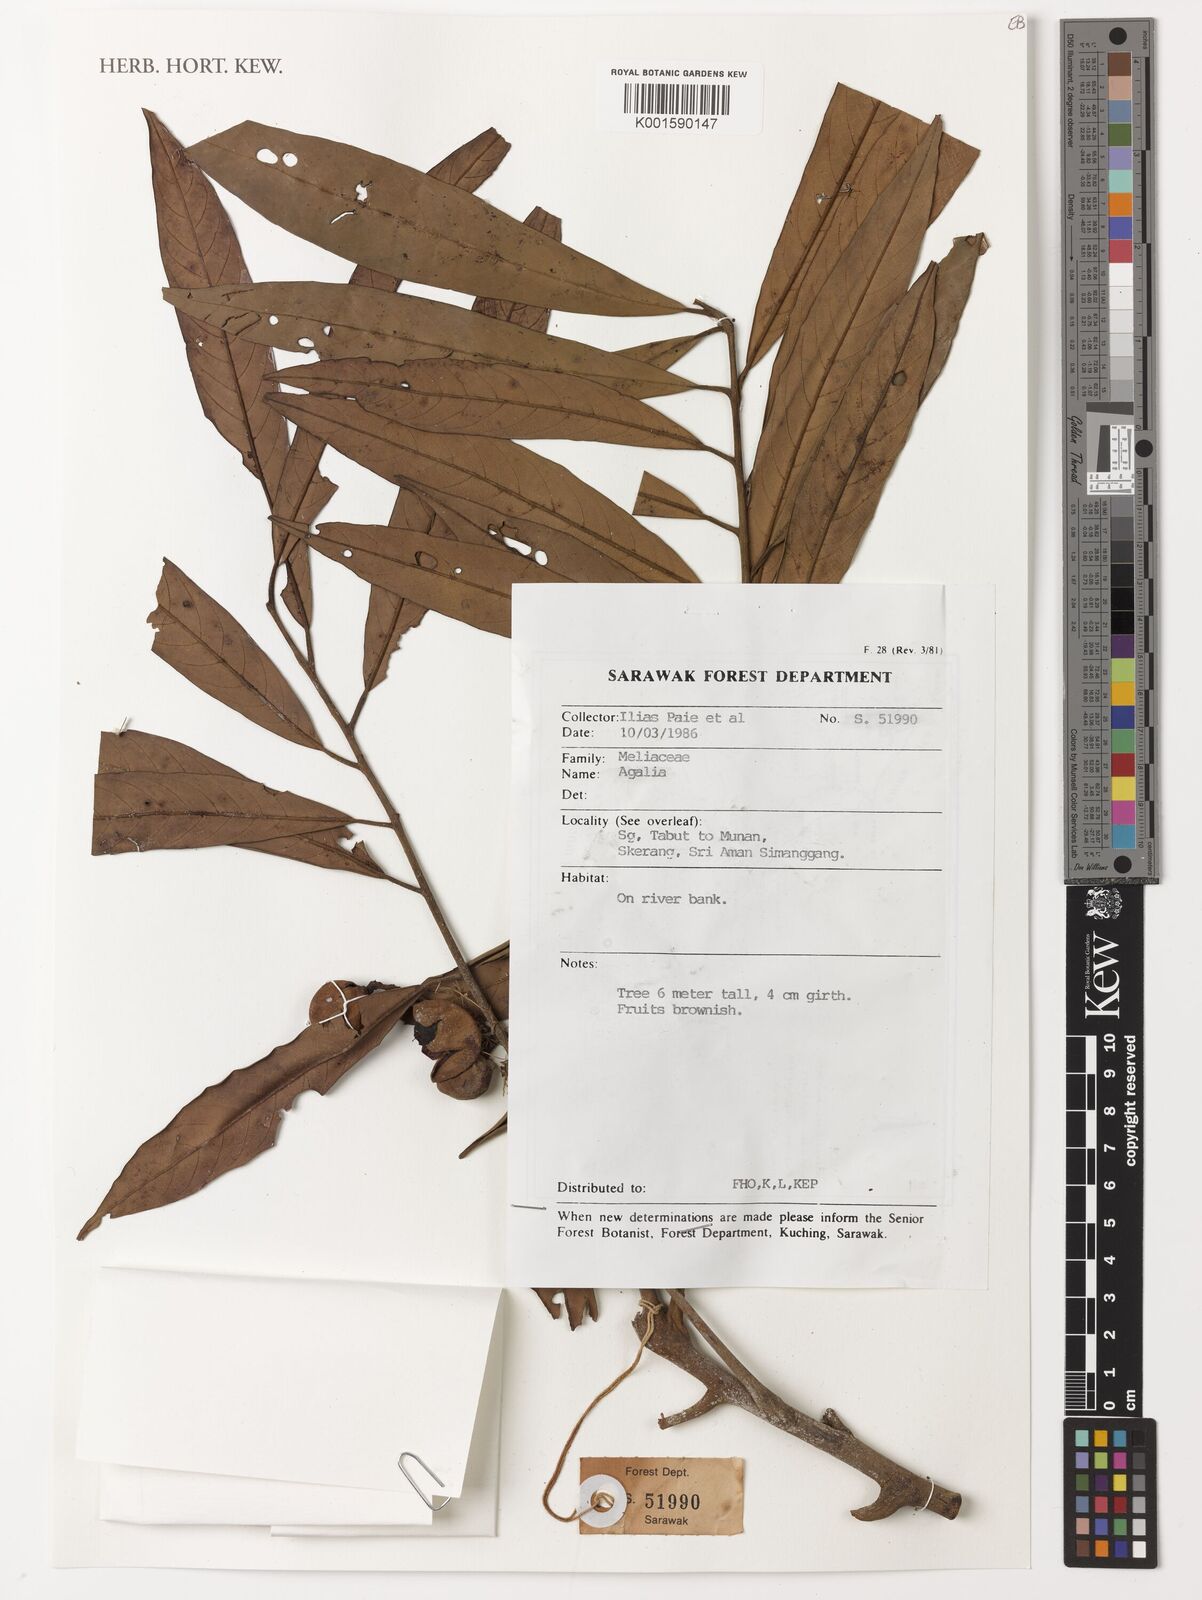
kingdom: Plantae
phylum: Tracheophyta
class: Magnoliopsida
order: Sapindales
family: Meliaceae
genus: Aglaia
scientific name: Aglaia
